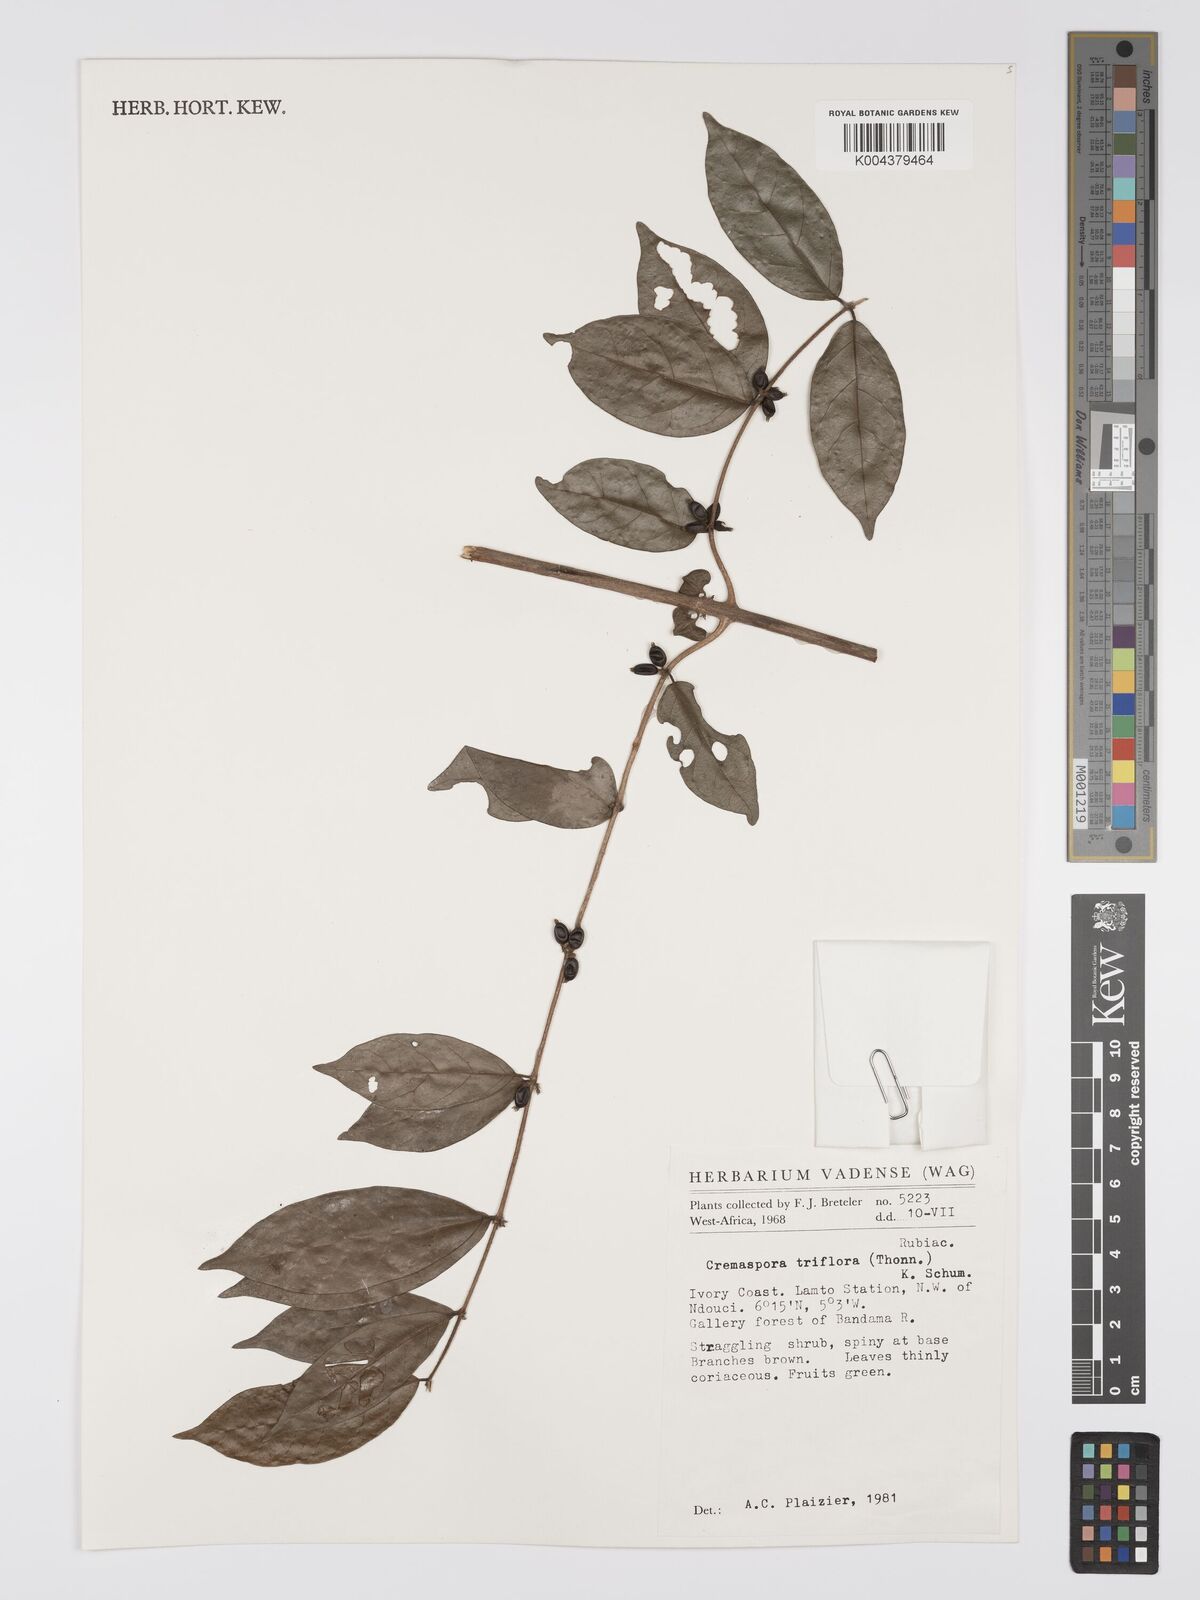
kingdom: Plantae
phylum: Tracheophyta
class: Magnoliopsida
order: Gentianales
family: Rubiaceae
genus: Cremaspora
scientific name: Cremaspora triflora
